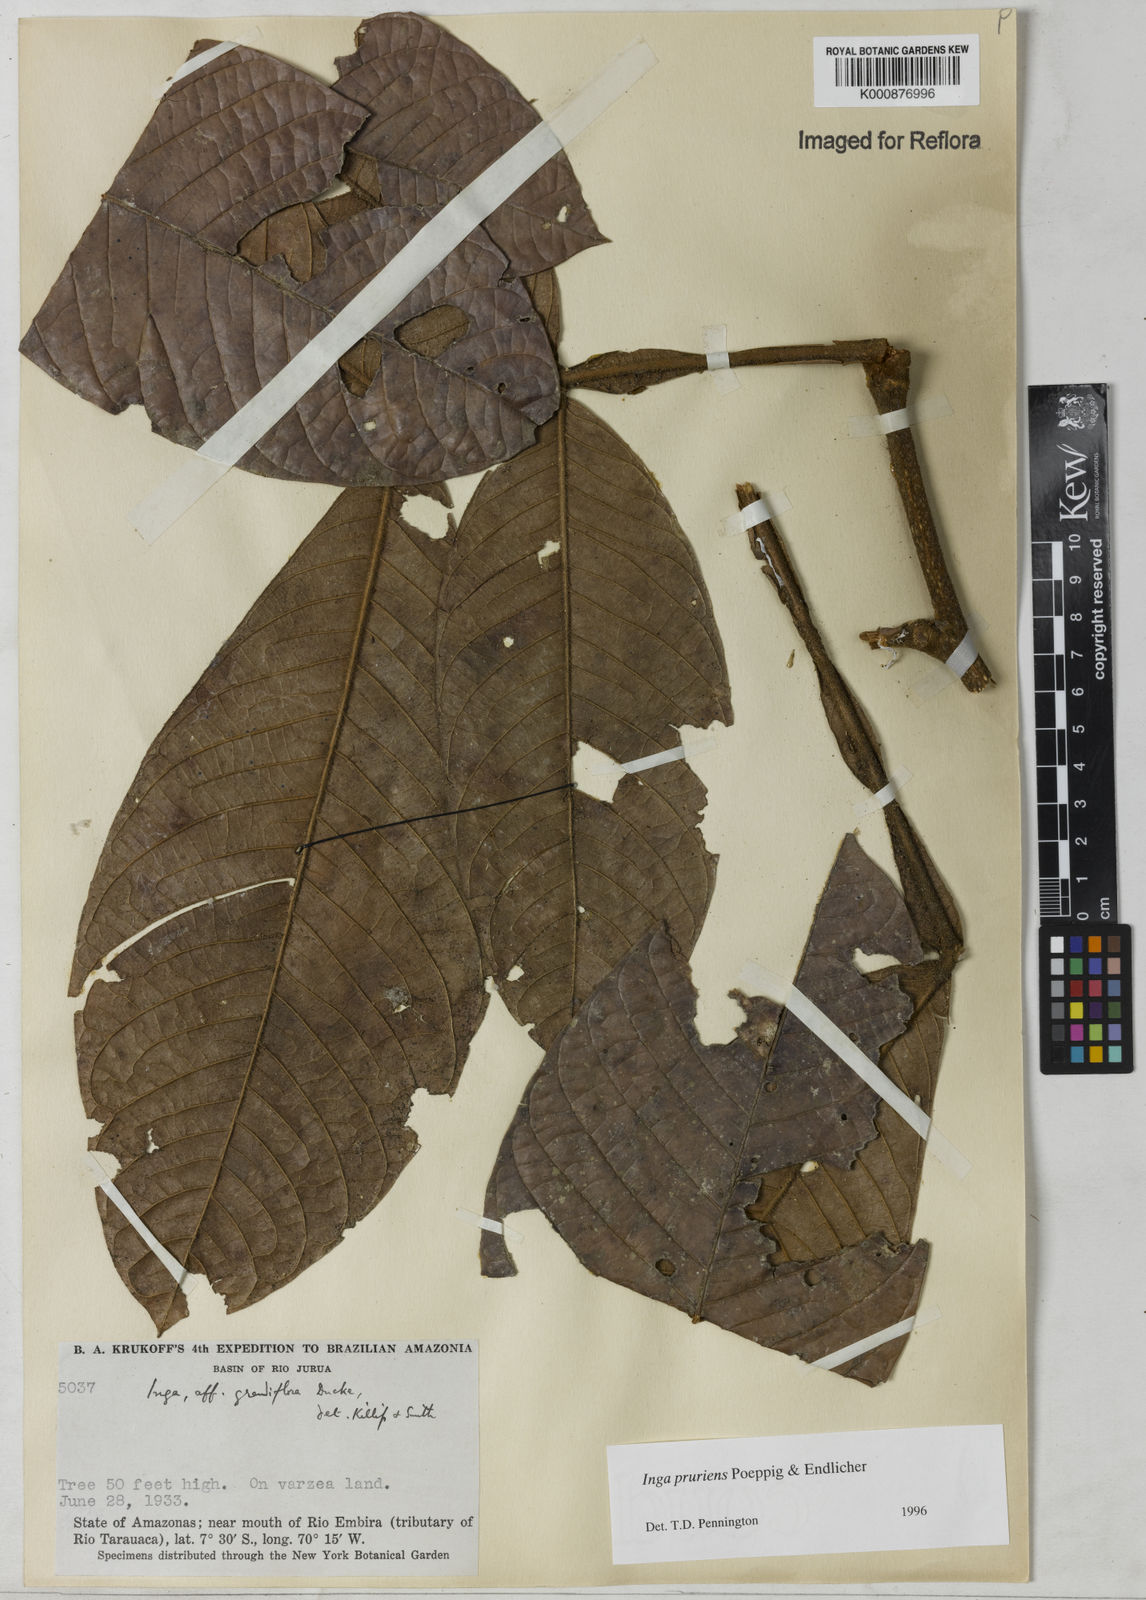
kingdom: Plantae
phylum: Tracheophyta
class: Magnoliopsida
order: Fabales
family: Fabaceae
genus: Inga
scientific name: Inga pruriens
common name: Howler monkey inga
